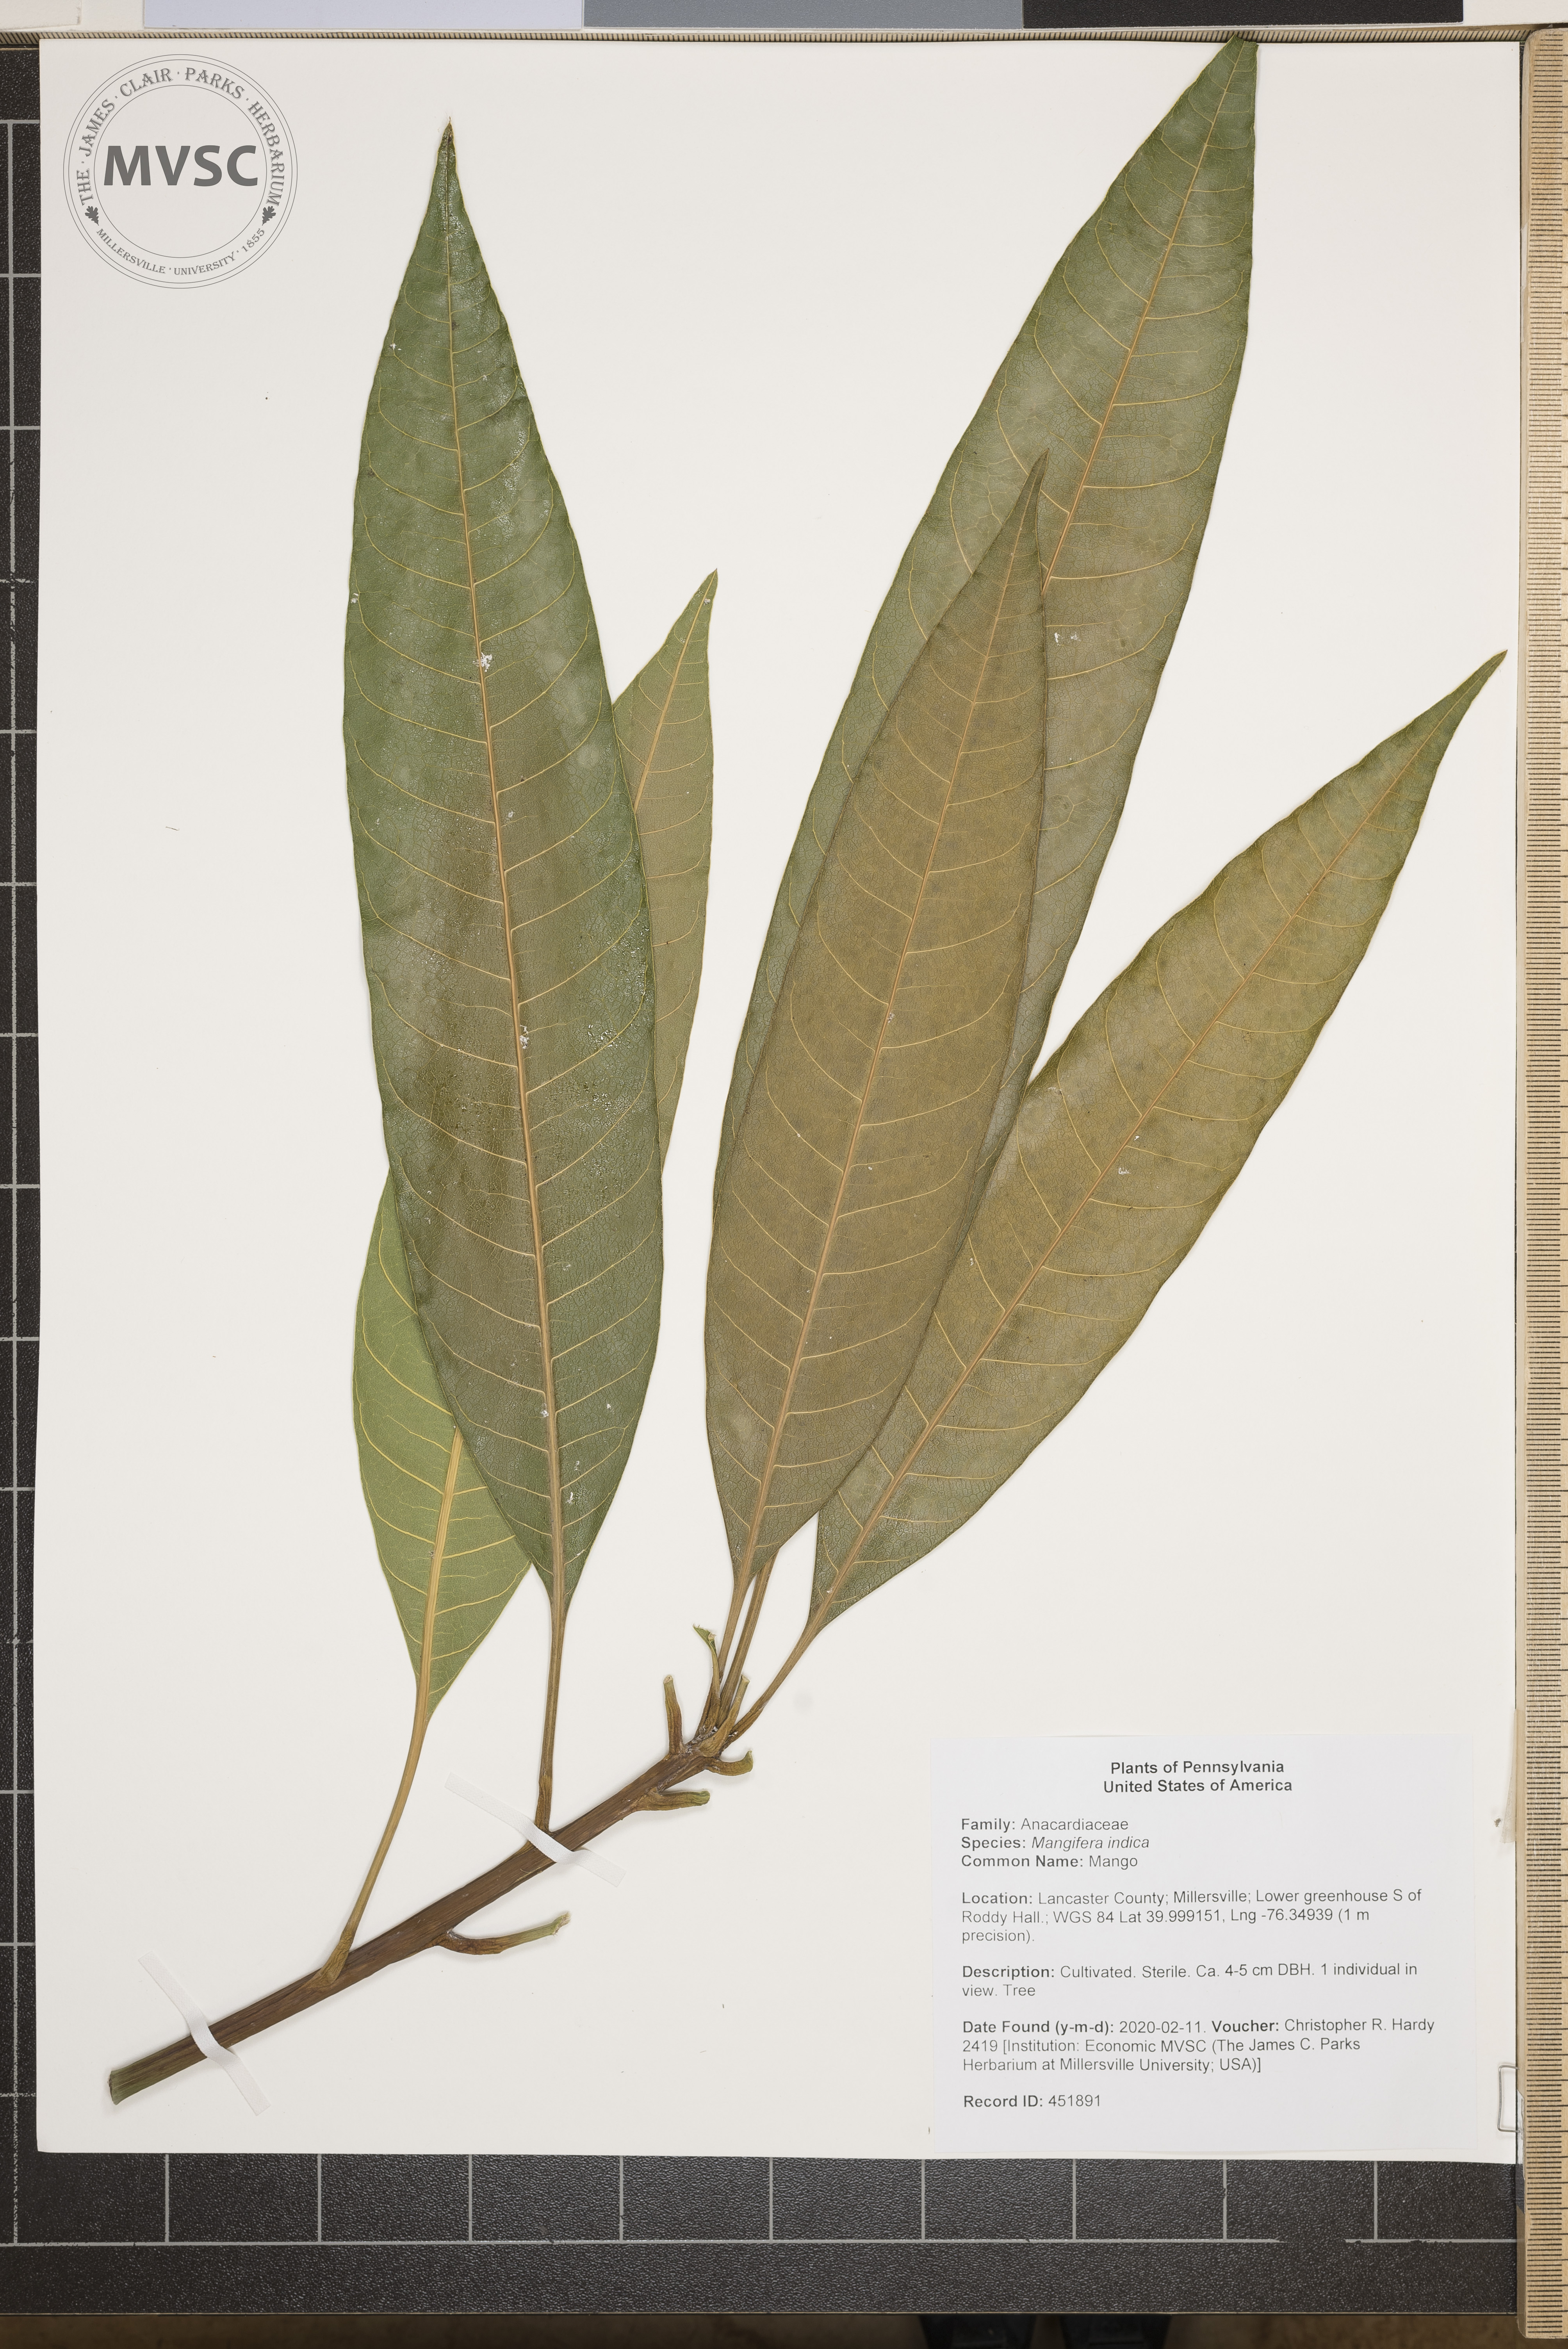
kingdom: Plantae
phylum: Tracheophyta
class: Magnoliopsida
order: Sapindales
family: Anacardiaceae
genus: Mangifera
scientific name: Mangifera indica
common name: Mango
